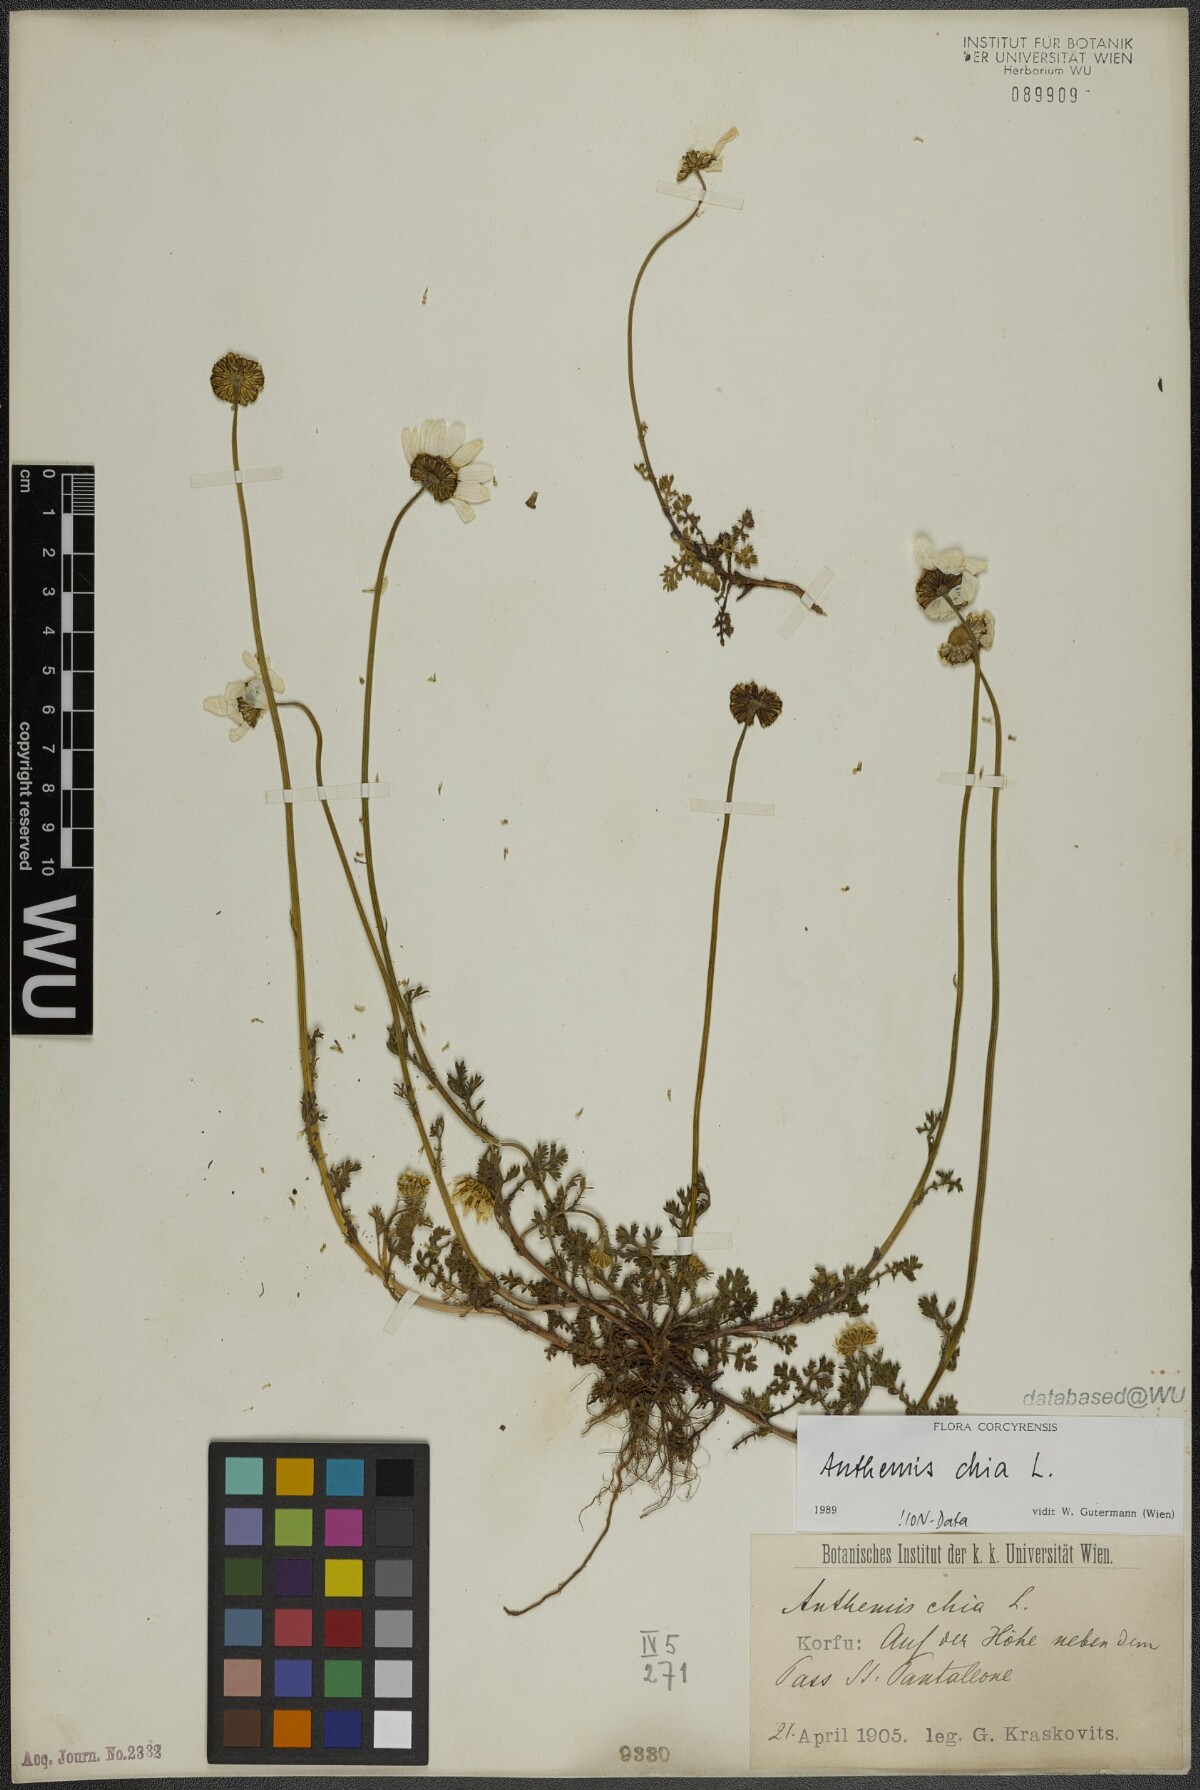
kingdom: Plantae
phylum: Tracheophyta
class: Magnoliopsida
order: Asterales
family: Asteraceae
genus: Anthemis
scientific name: Anthemis chia
